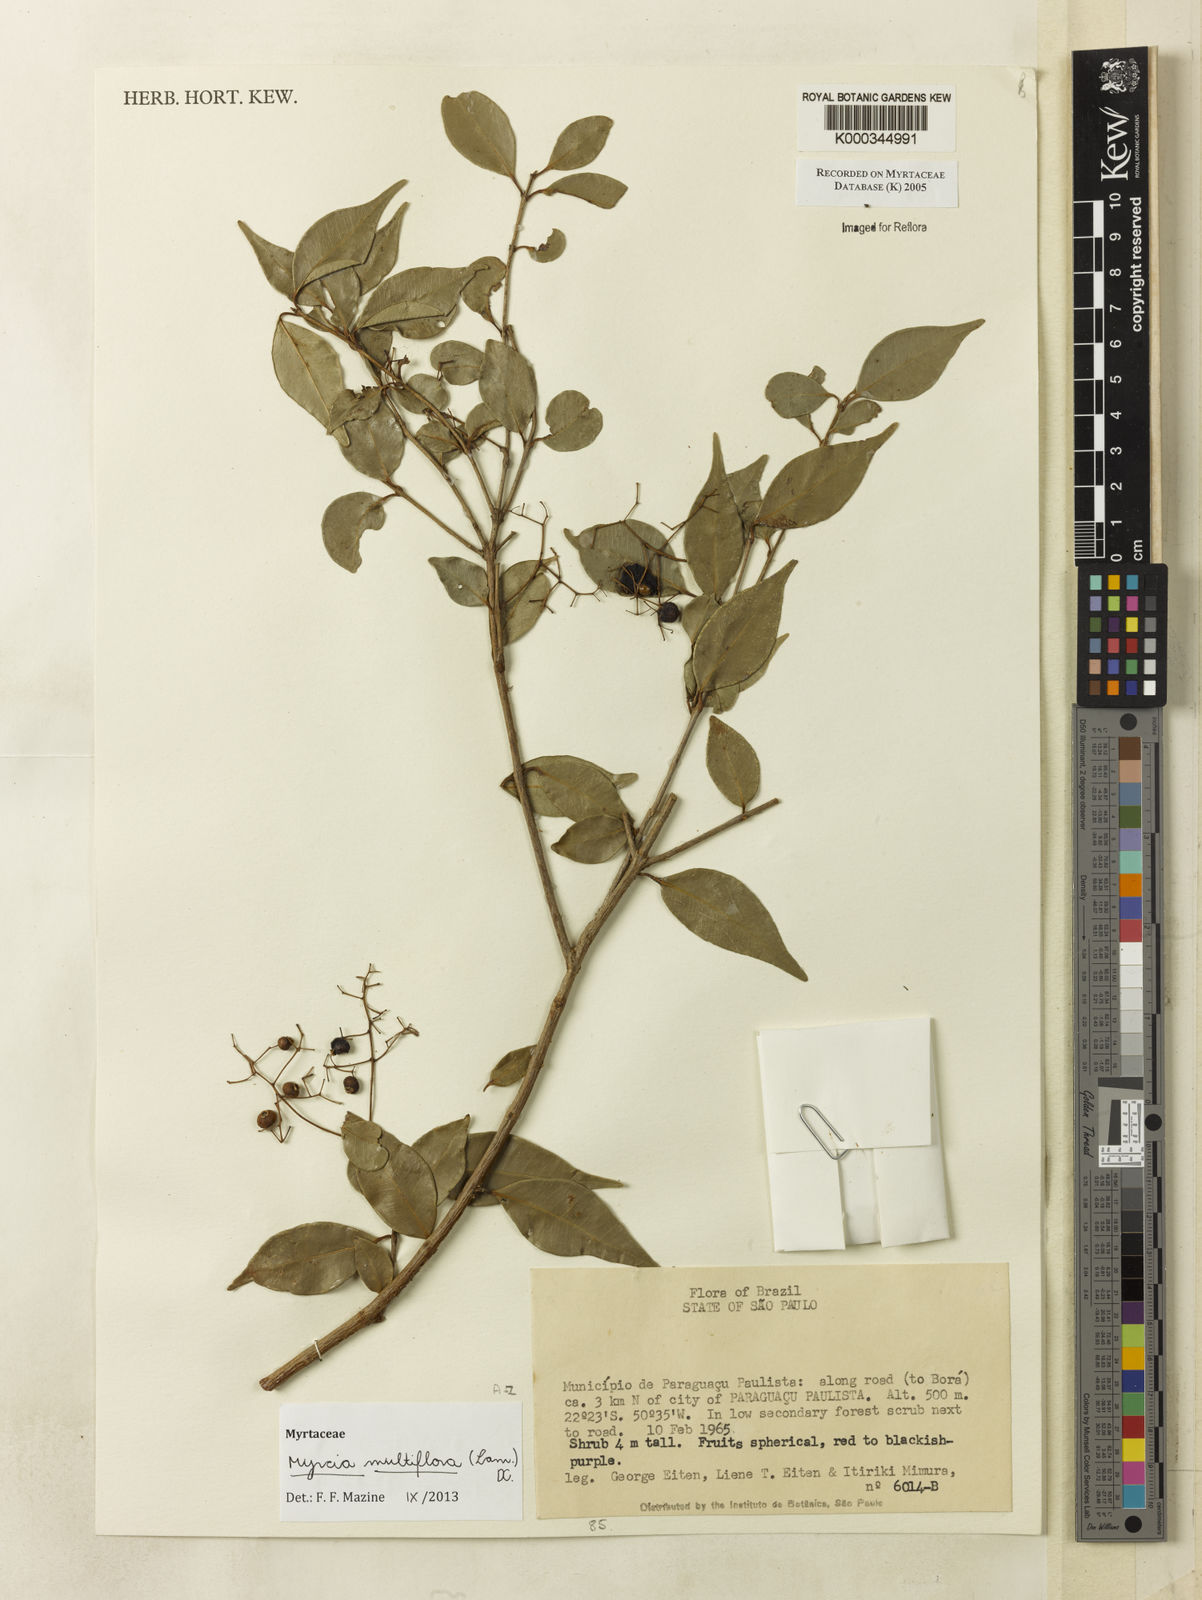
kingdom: Plantae
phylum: Tracheophyta
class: Magnoliopsida
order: Myrtales
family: Myrtaceae
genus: Myrcia
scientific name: Myrcia
